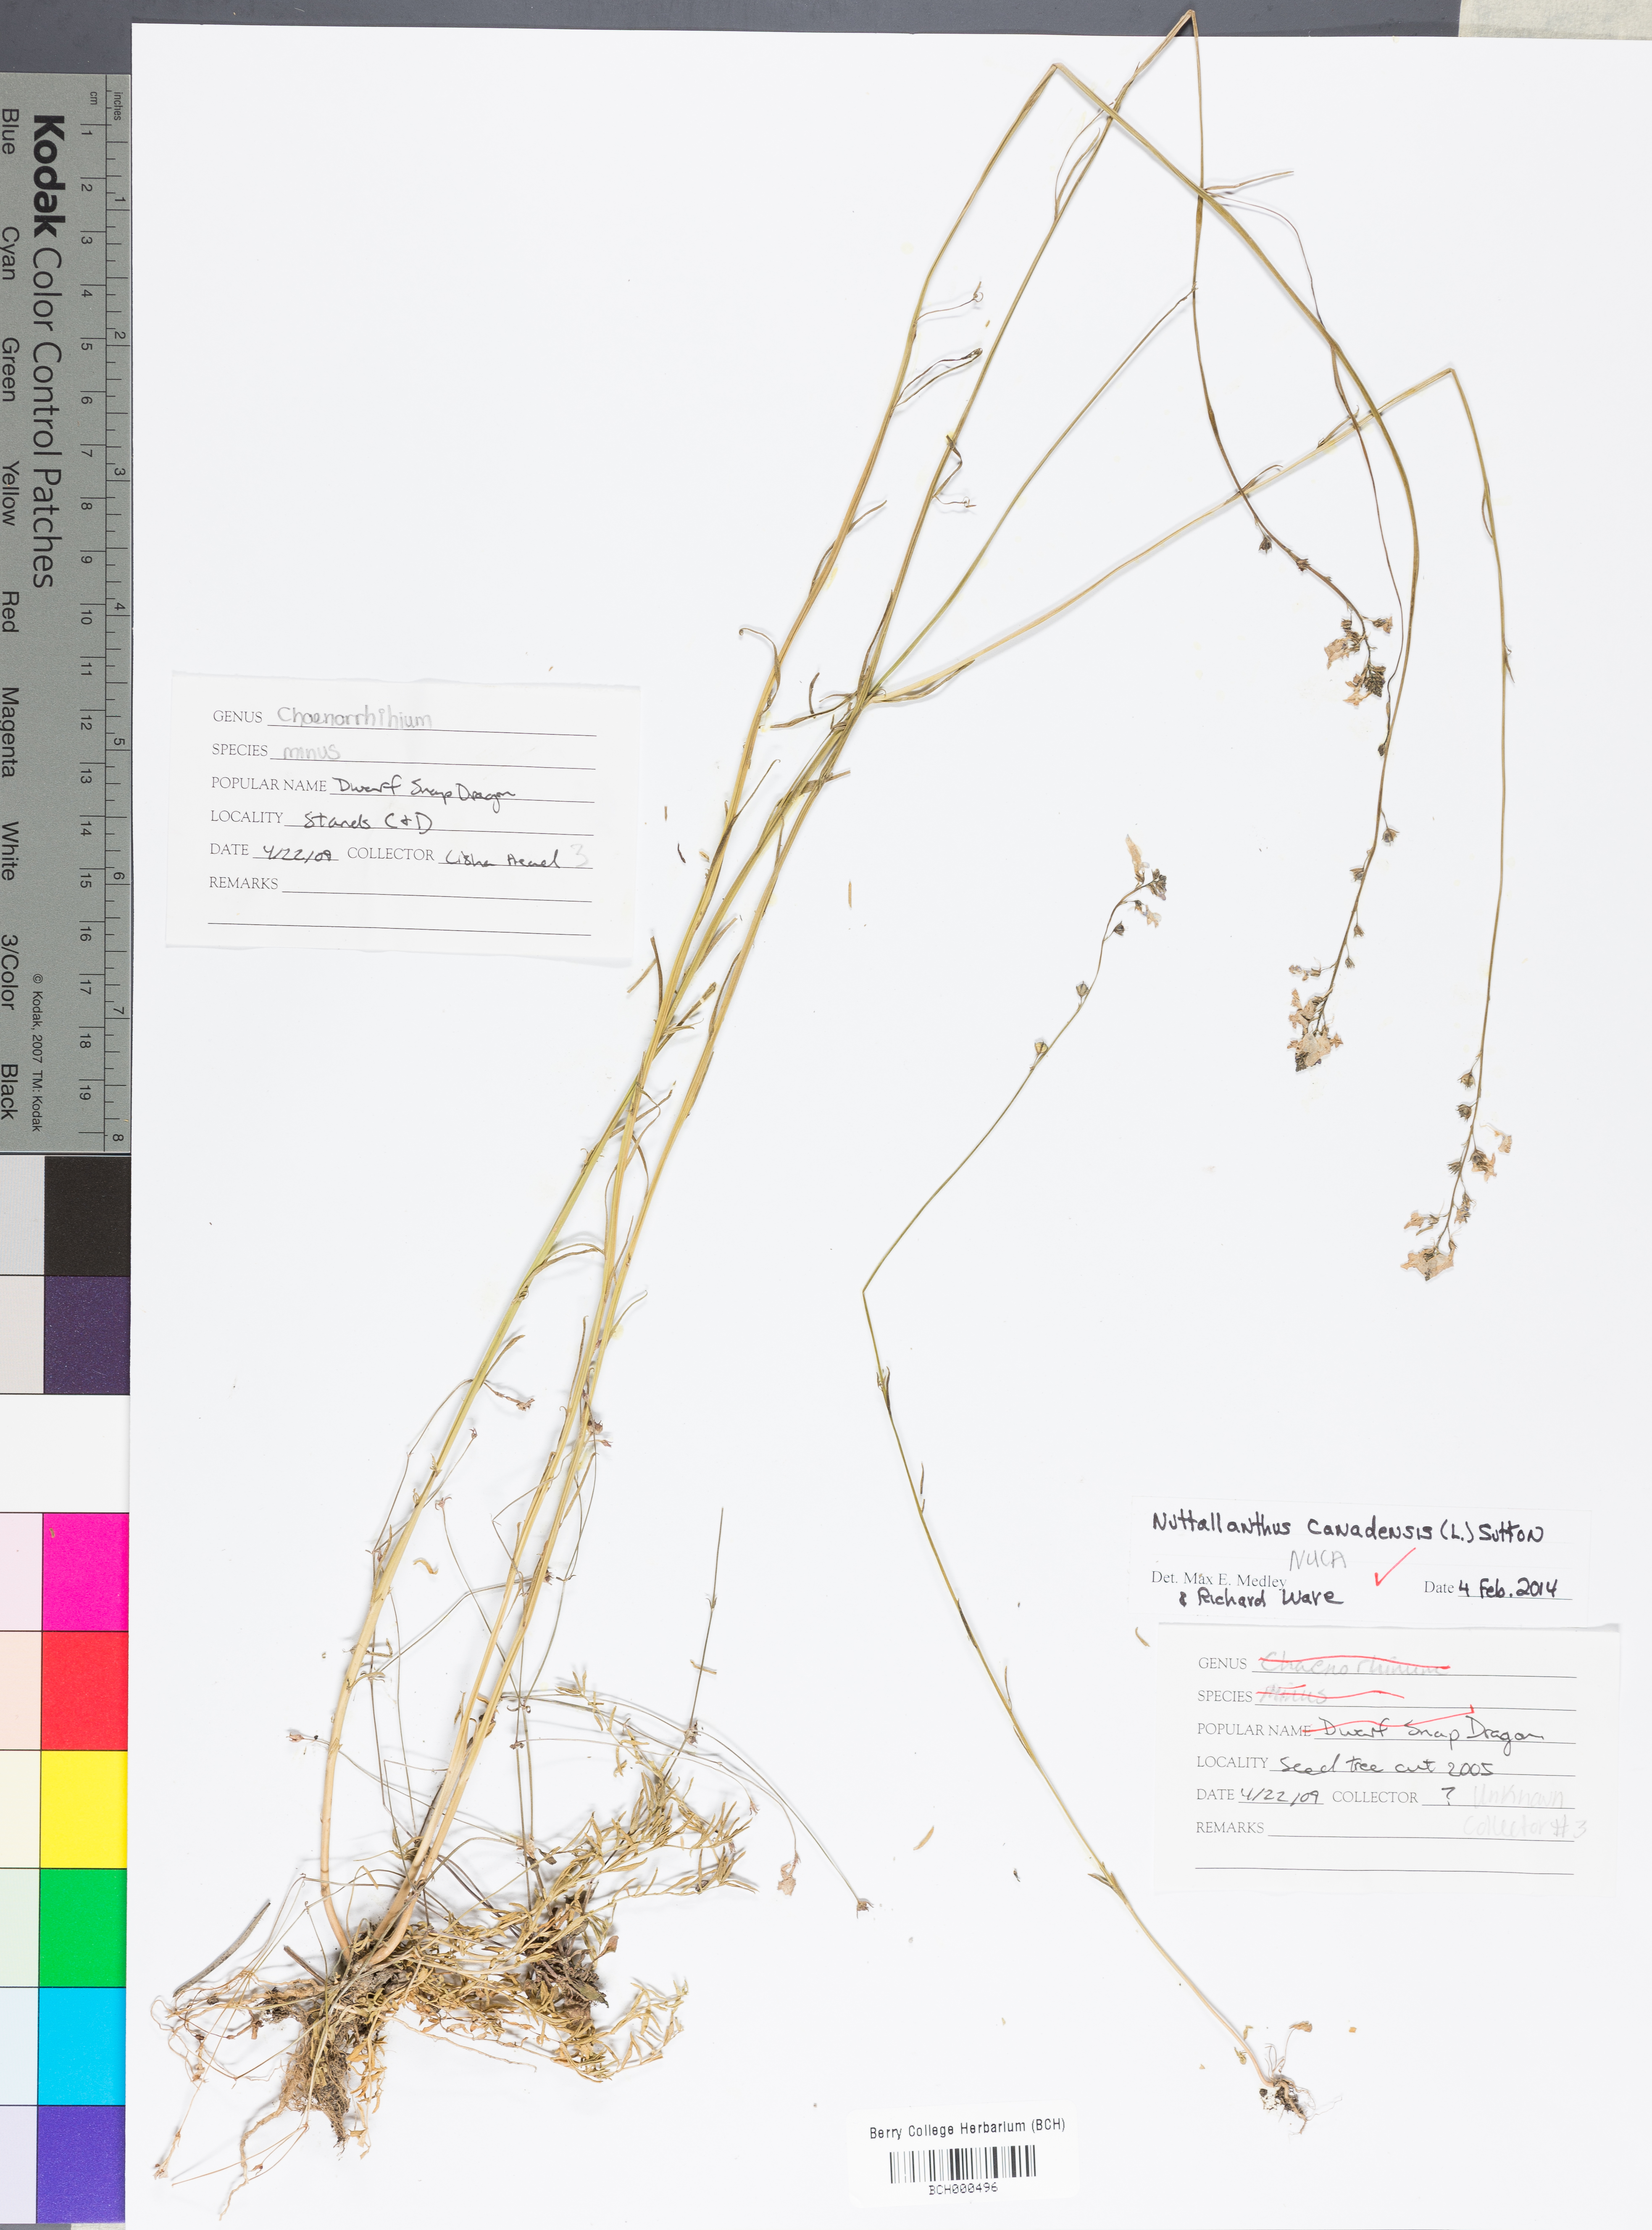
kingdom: Plantae
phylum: Tracheophyta
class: Magnoliopsida
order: Lamiales
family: Plantaginaceae
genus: Nuttallanthus
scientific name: Nuttallanthus canadensis
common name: Blue toadflax
